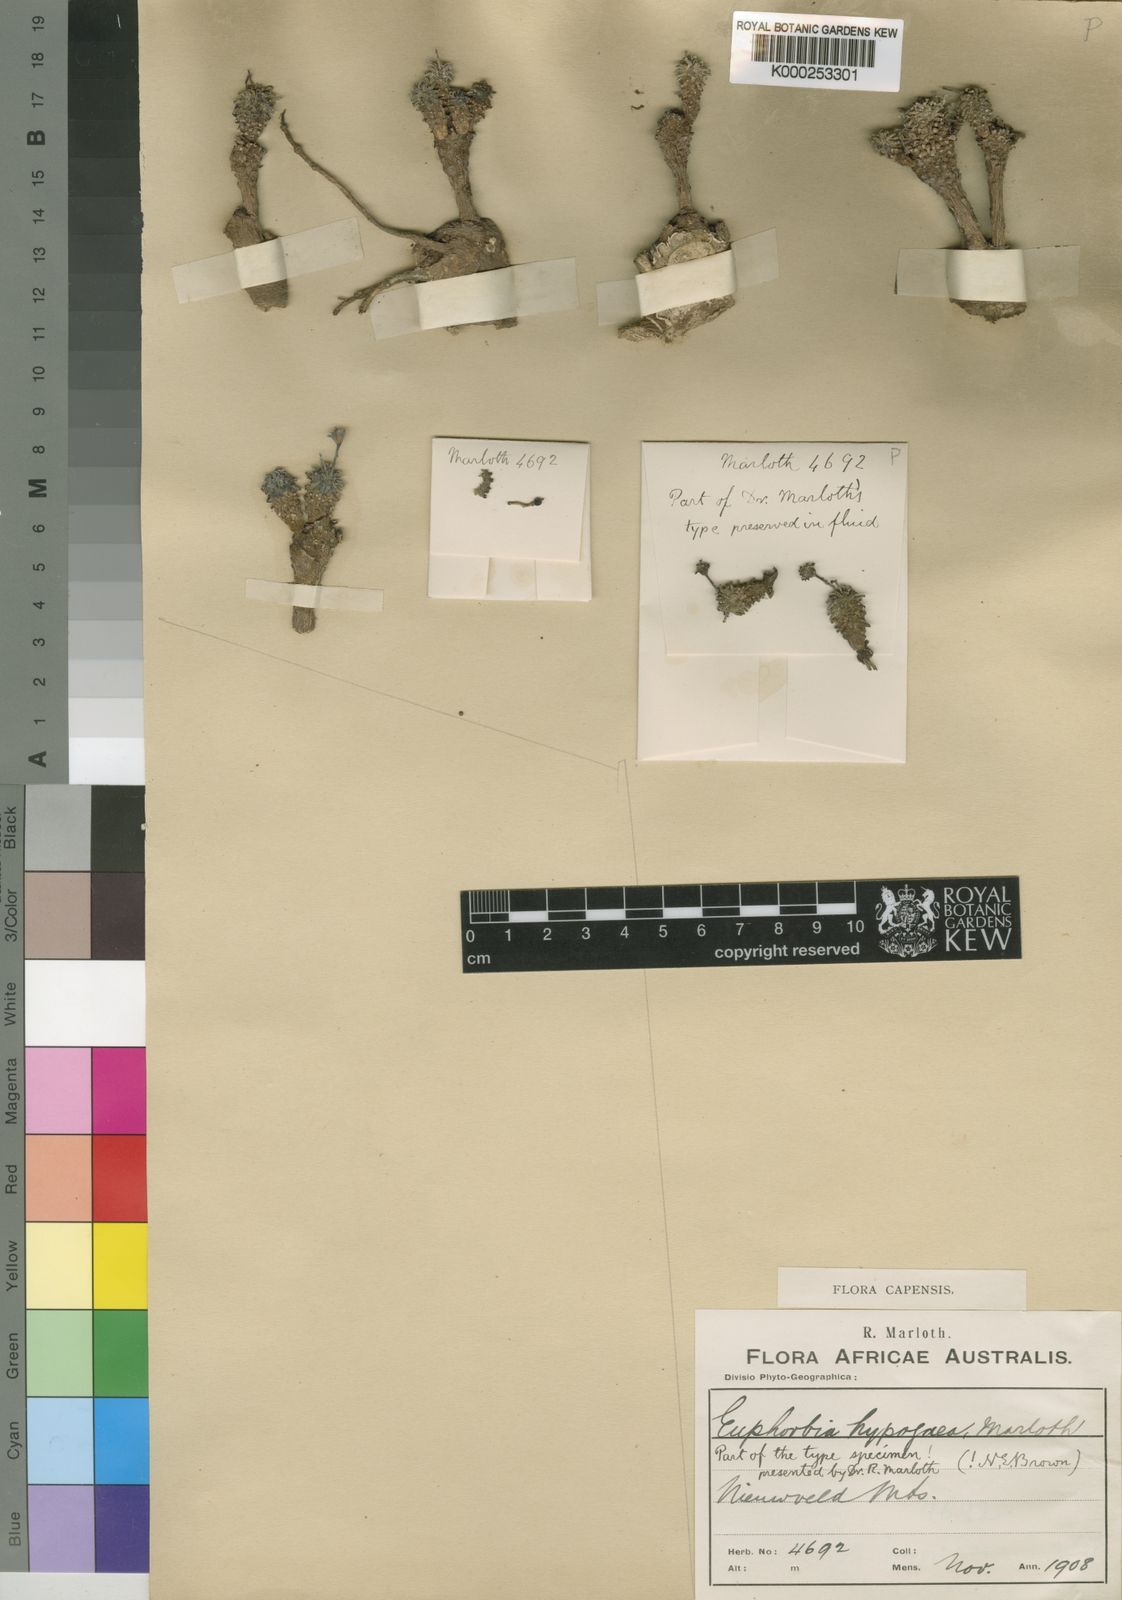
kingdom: Plantae
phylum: Tracheophyta
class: Magnoliopsida
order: Malpighiales
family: Euphorbiaceae
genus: Euphorbia
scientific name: Euphorbia hypogaea
